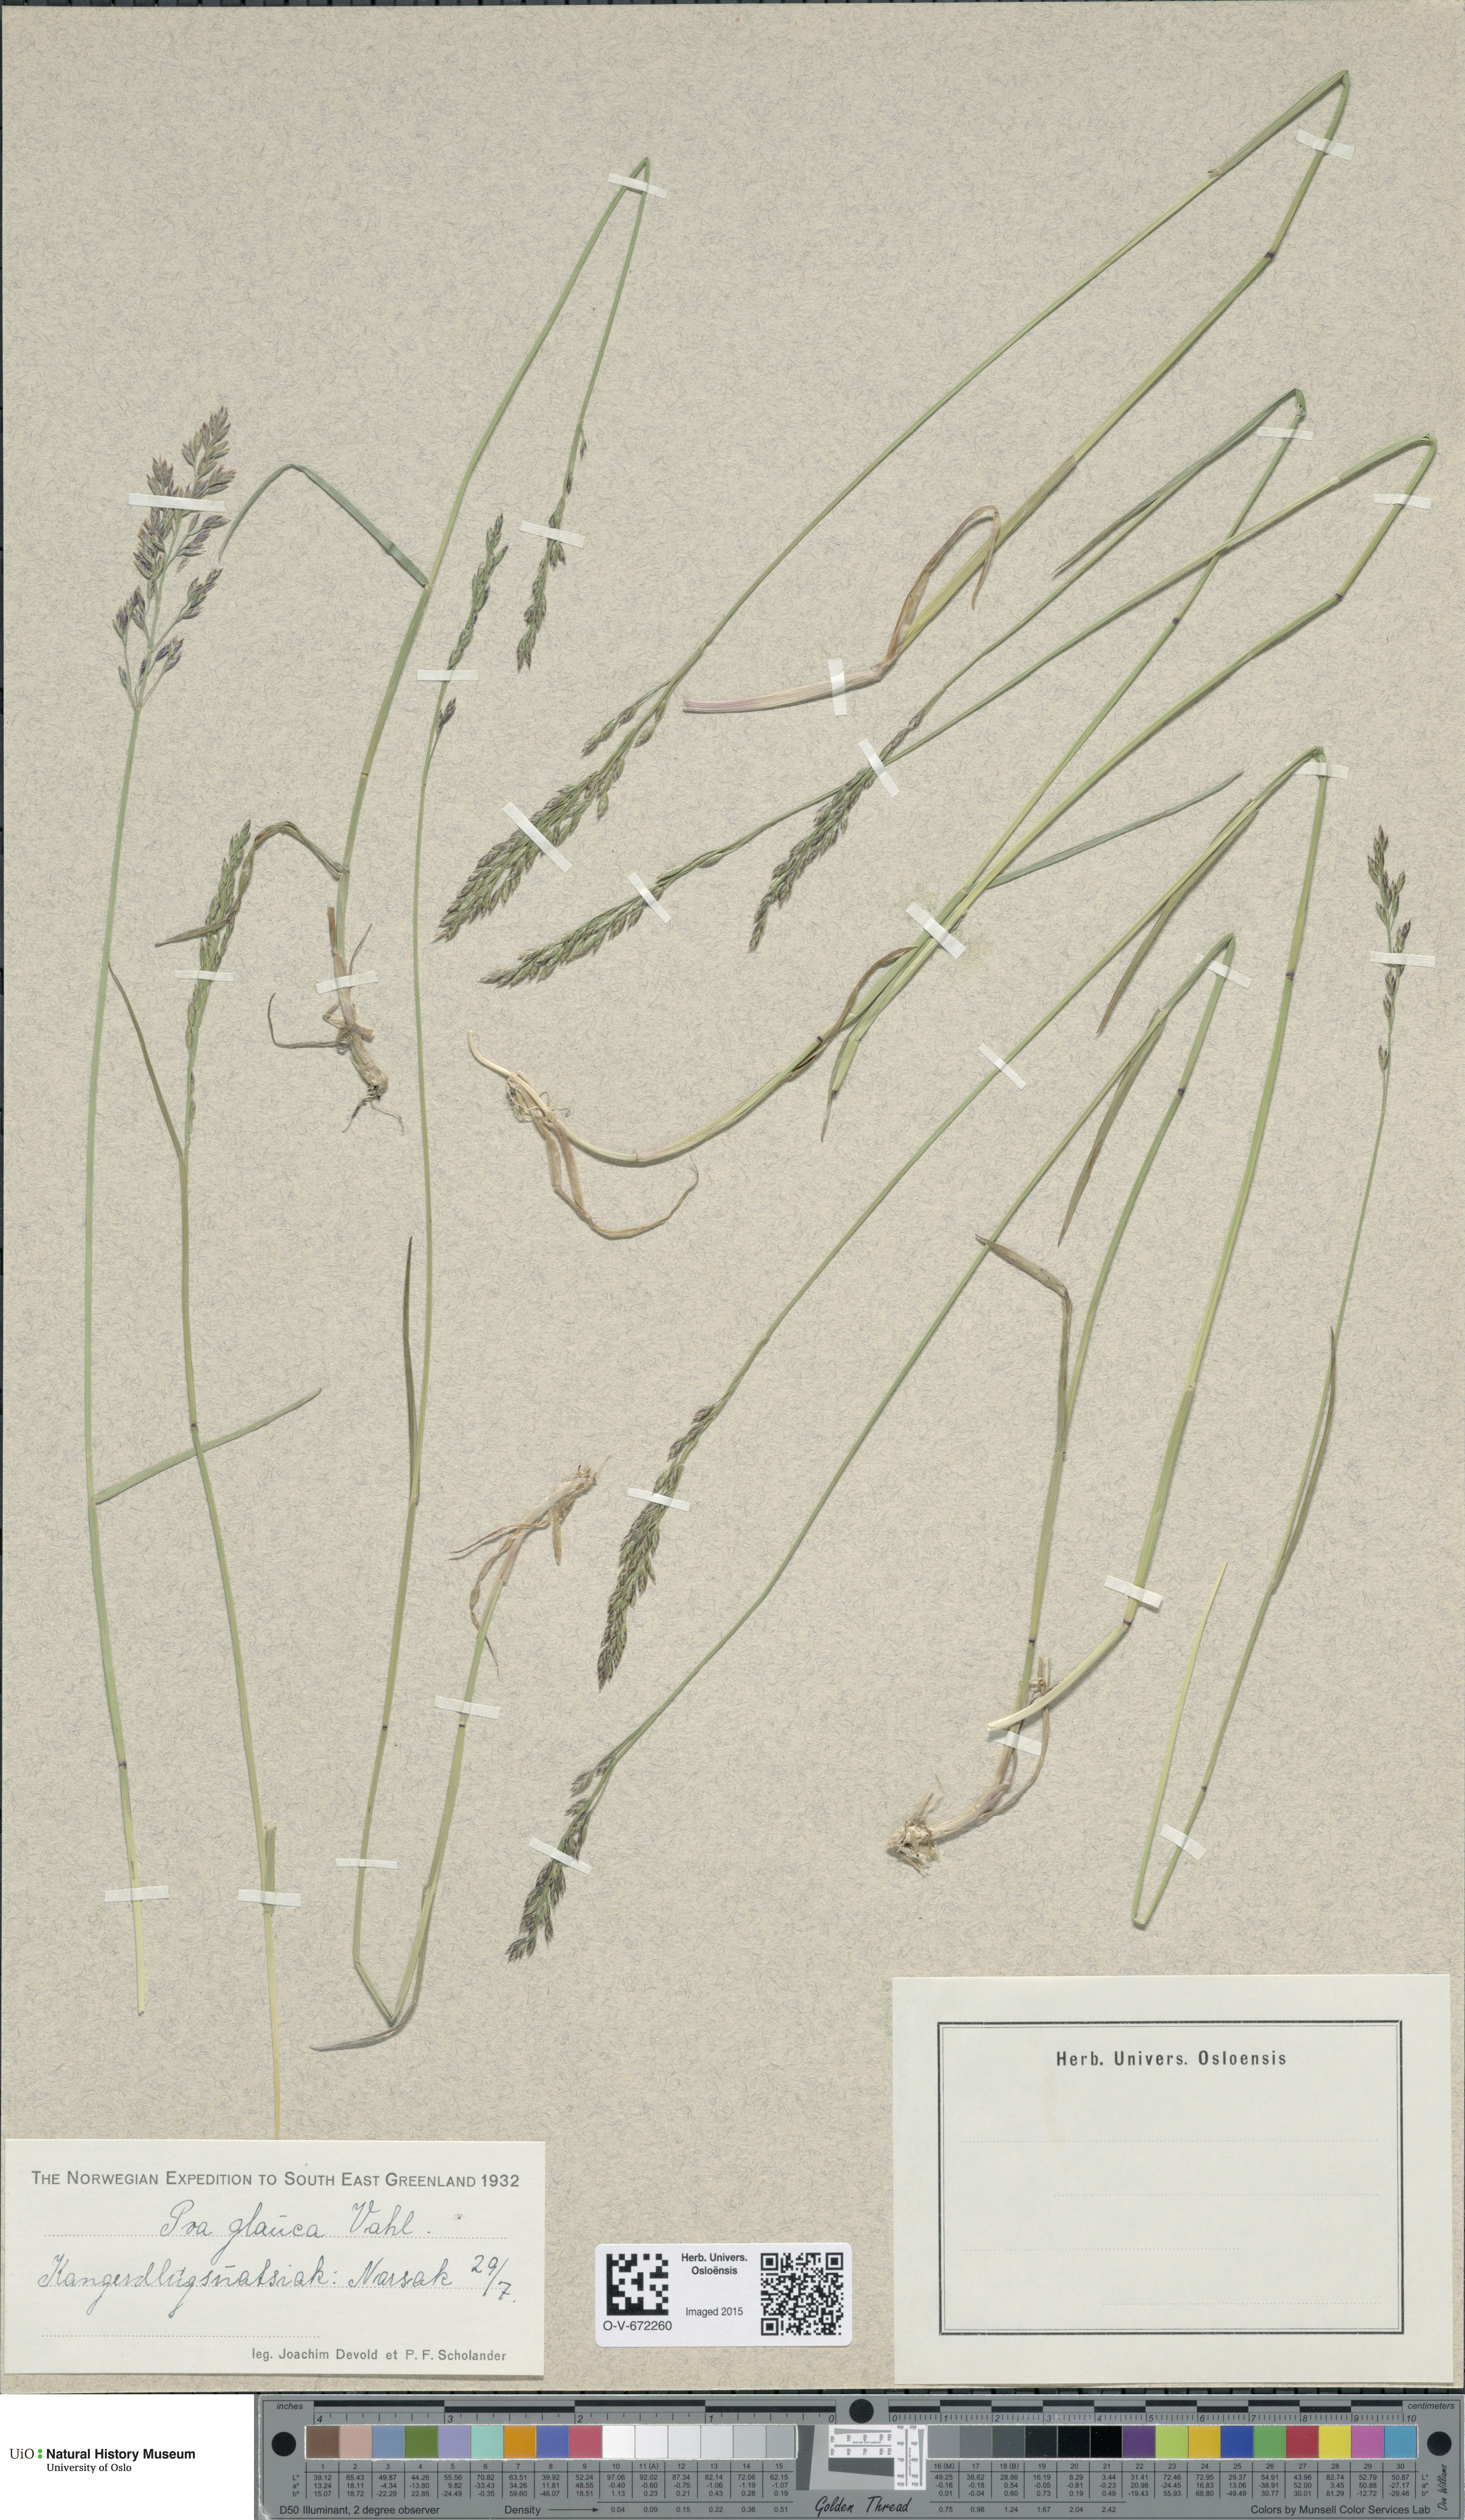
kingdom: Plantae
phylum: Tracheophyta
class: Liliopsida
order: Poales
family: Poaceae
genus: Poa
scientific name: Poa glauca
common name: Glaucous bluegrass
